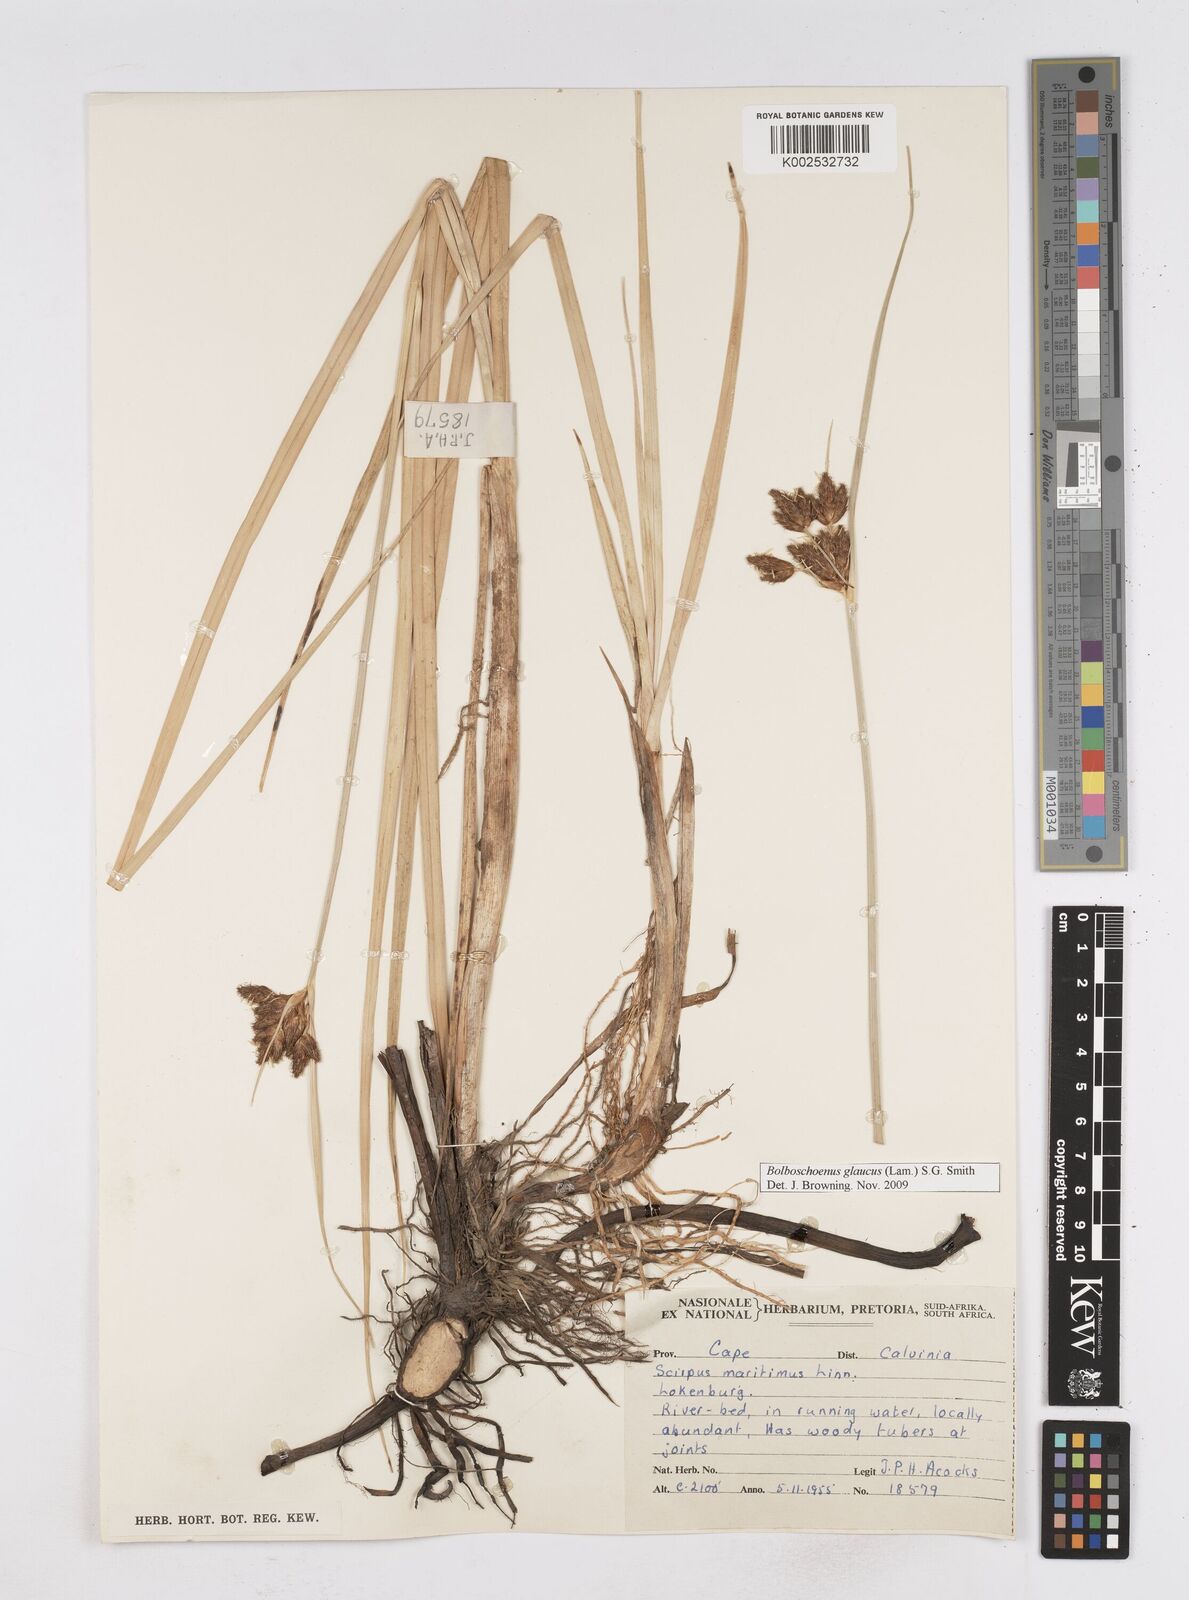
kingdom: Plantae
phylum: Tracheophyta
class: Liliopsida
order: Poales
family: Cyperaceae
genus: Bolboschoenus
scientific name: Bolboschoenus maritimus
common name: Sea club-rush
